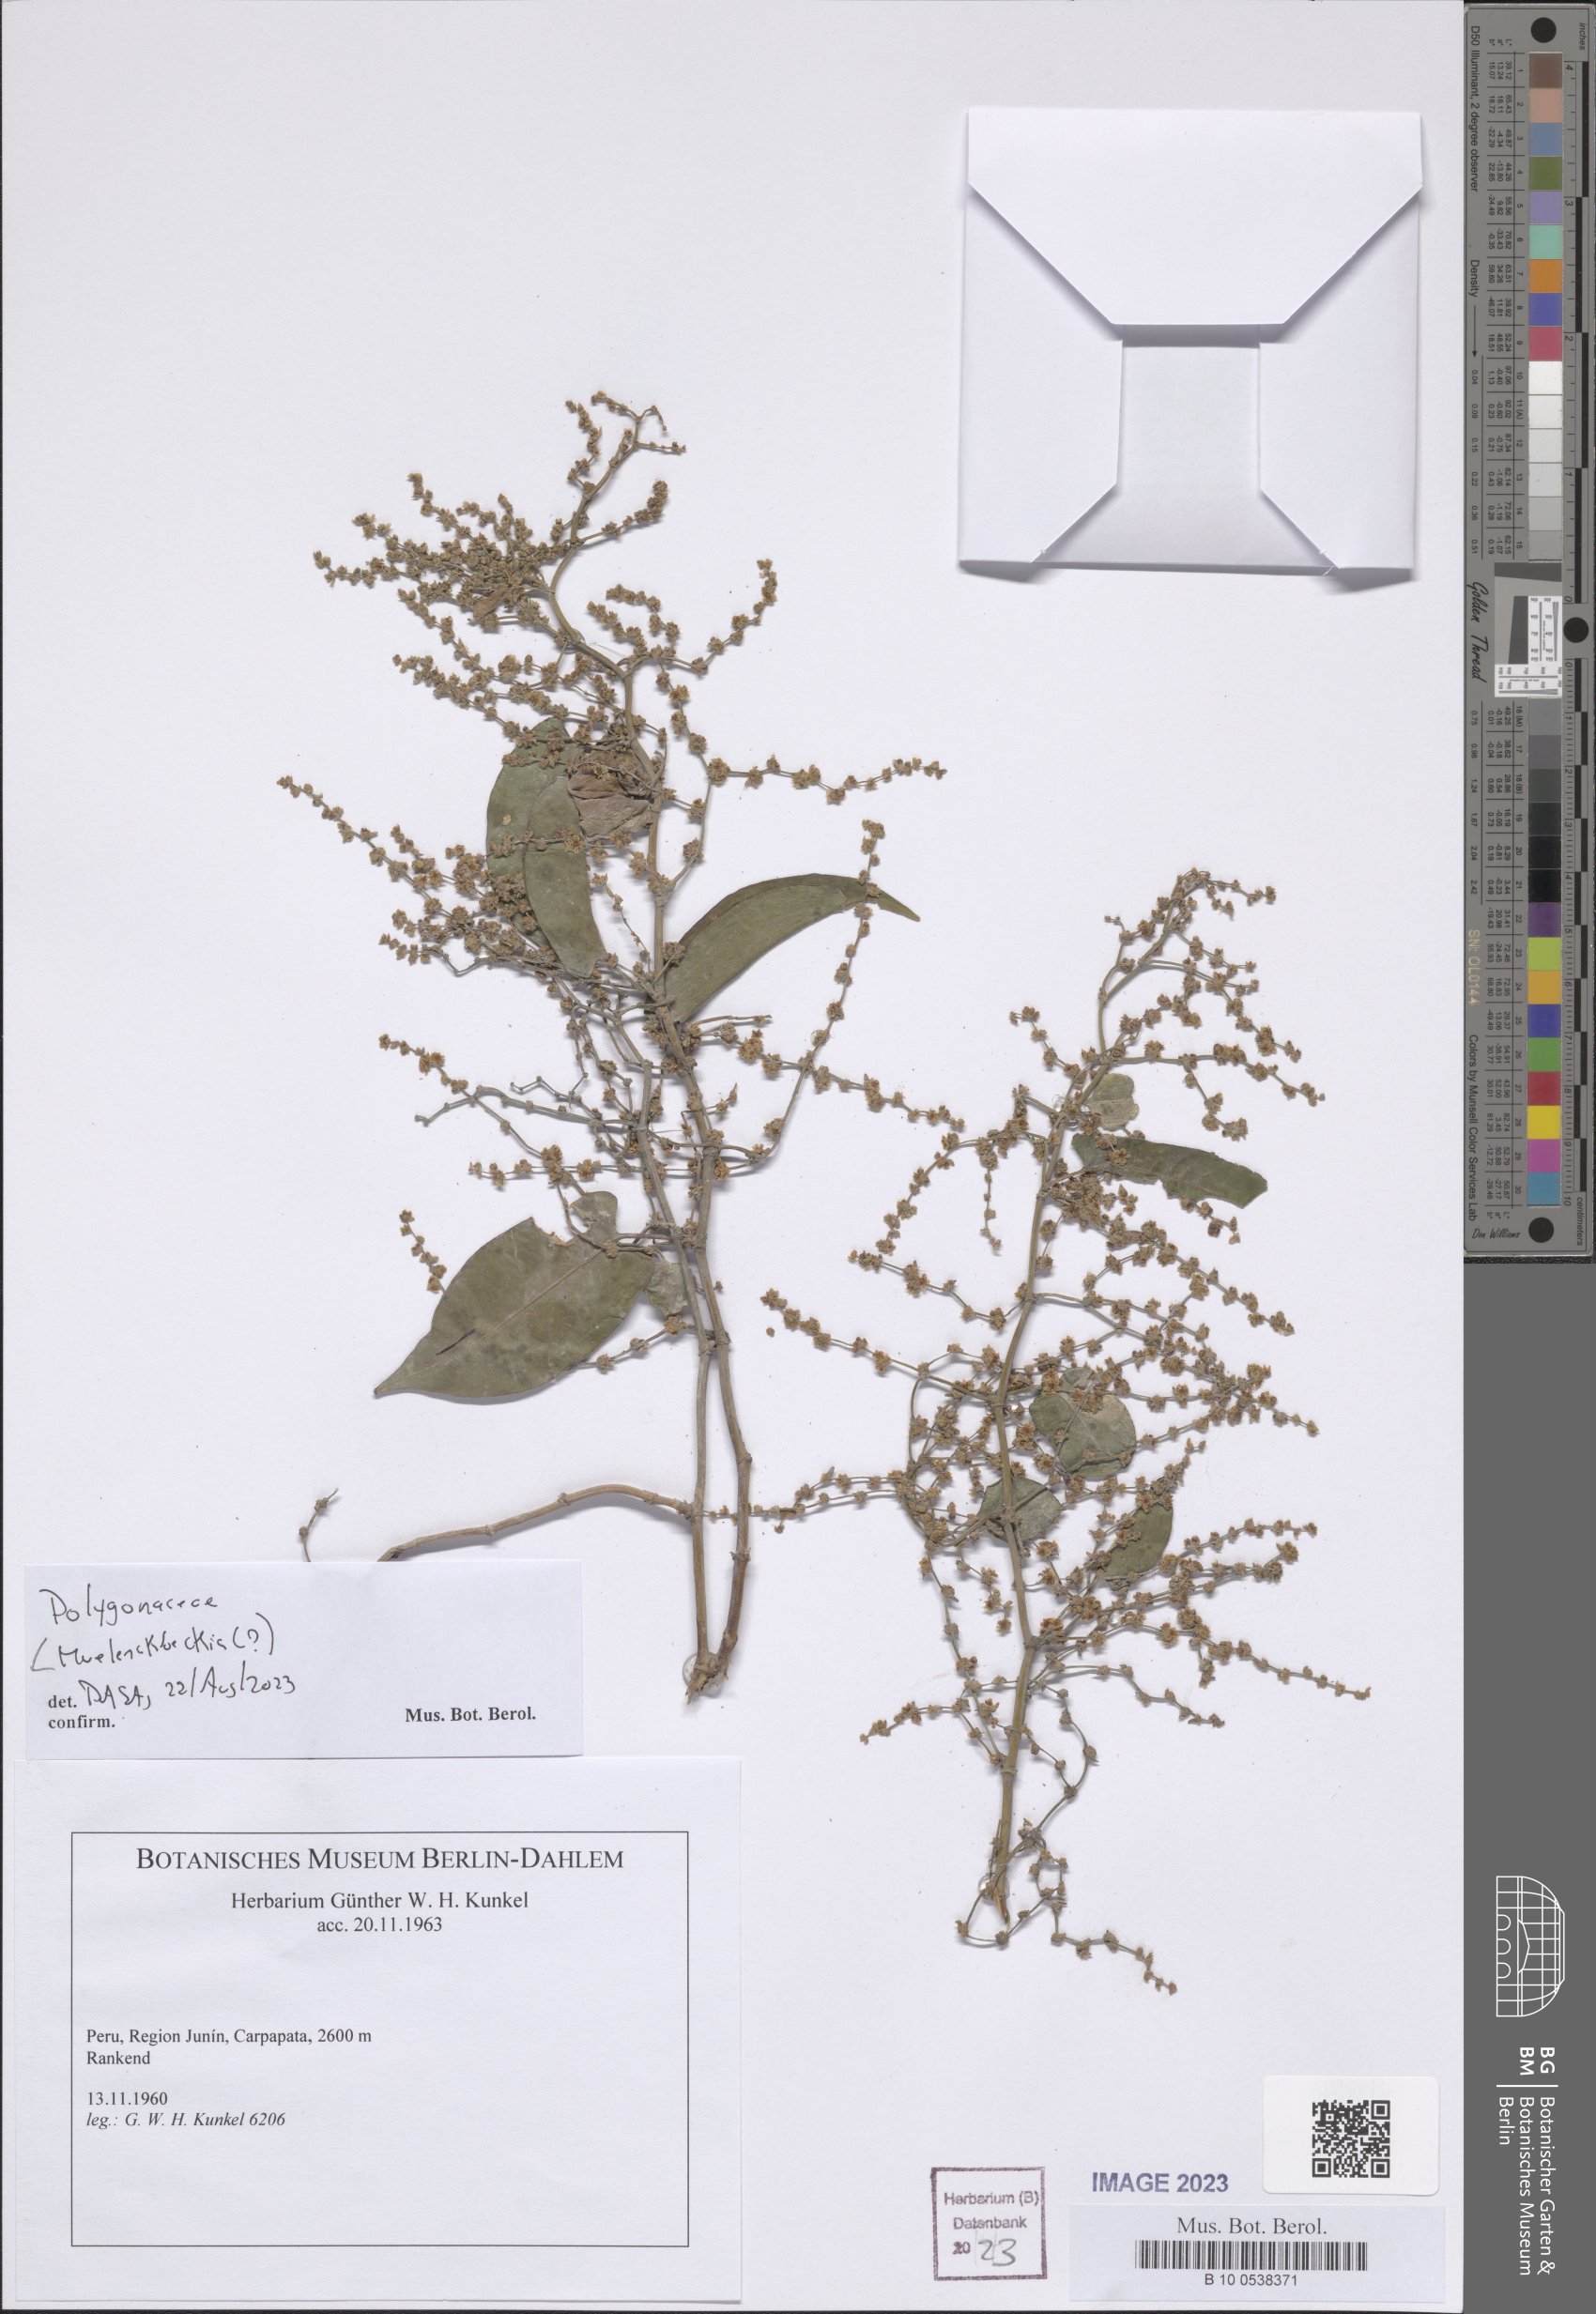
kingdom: Plantae
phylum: Tracheophyta
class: Magnoliopsida
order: Caryophyllales
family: Polygonaceae
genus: Muehlenbeckia
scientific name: Muehlenbeckia
